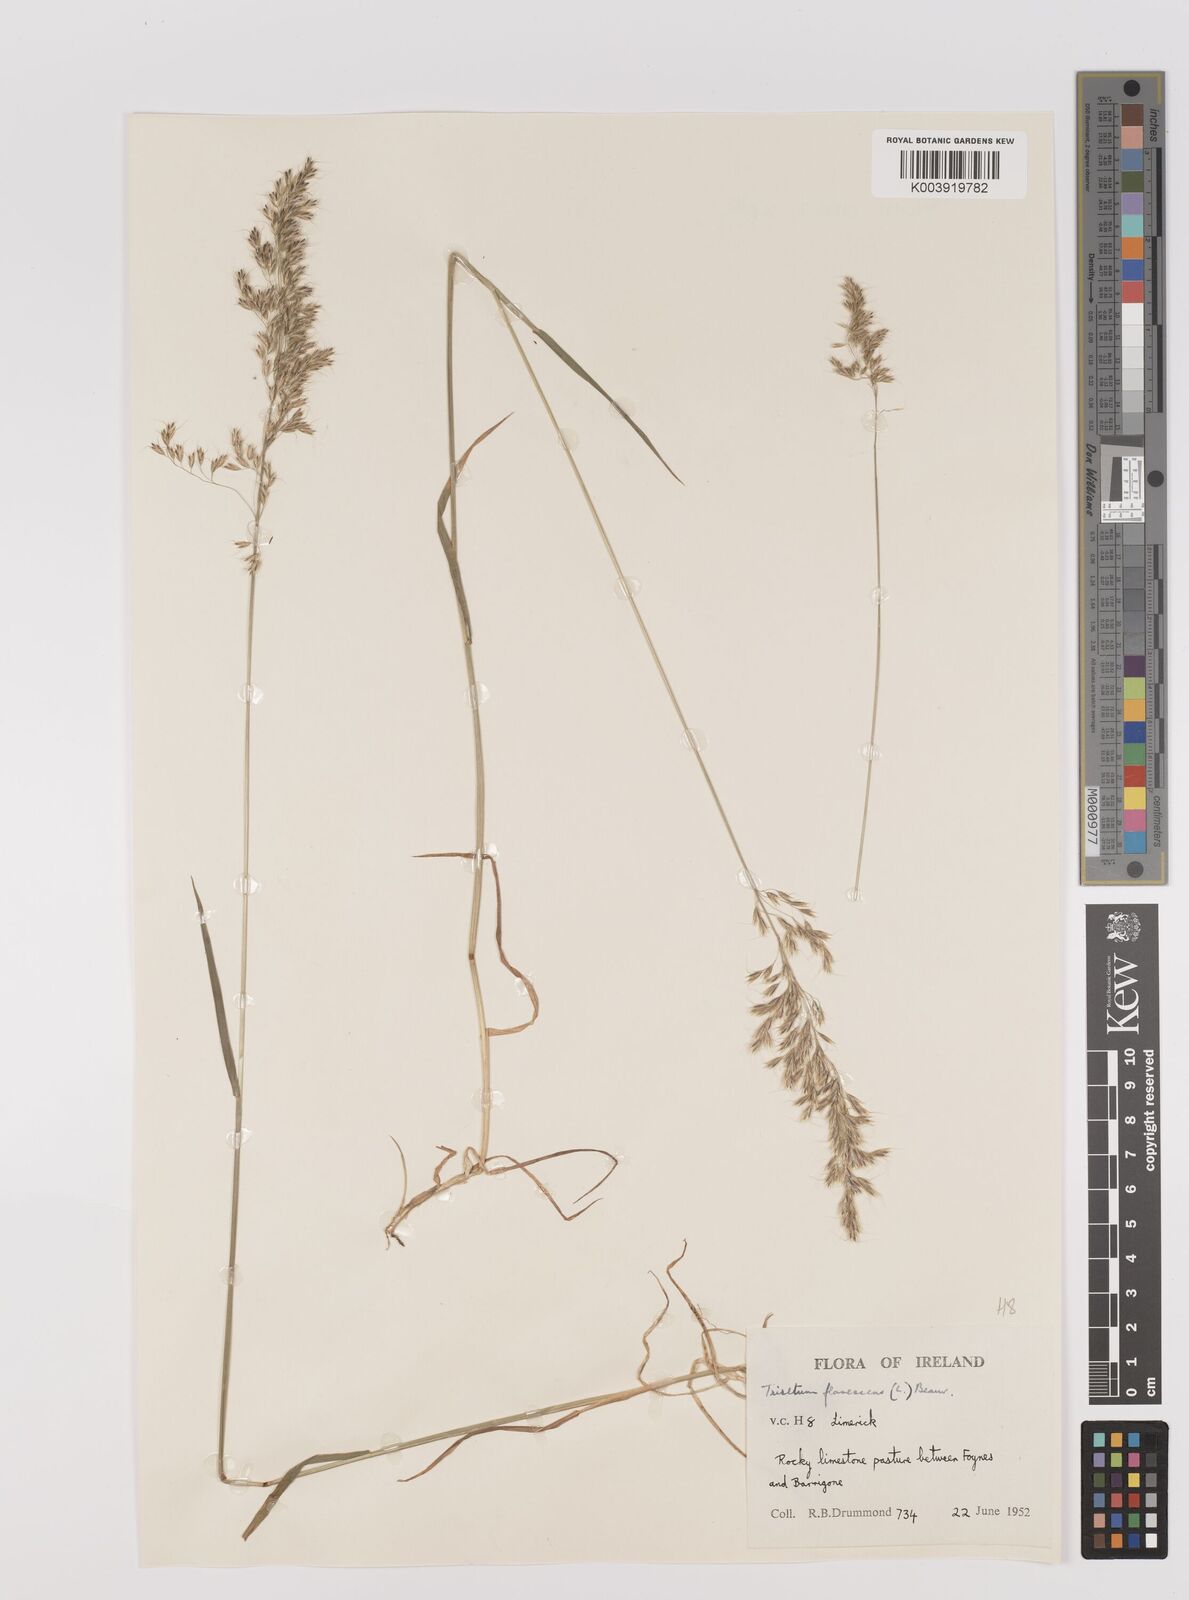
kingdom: Plantae
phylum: Tracheophyta
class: Liliopsida
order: Poales
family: Poaceae
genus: Trisetum
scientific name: Trisetum flavescens
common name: Yellow oat-grass
